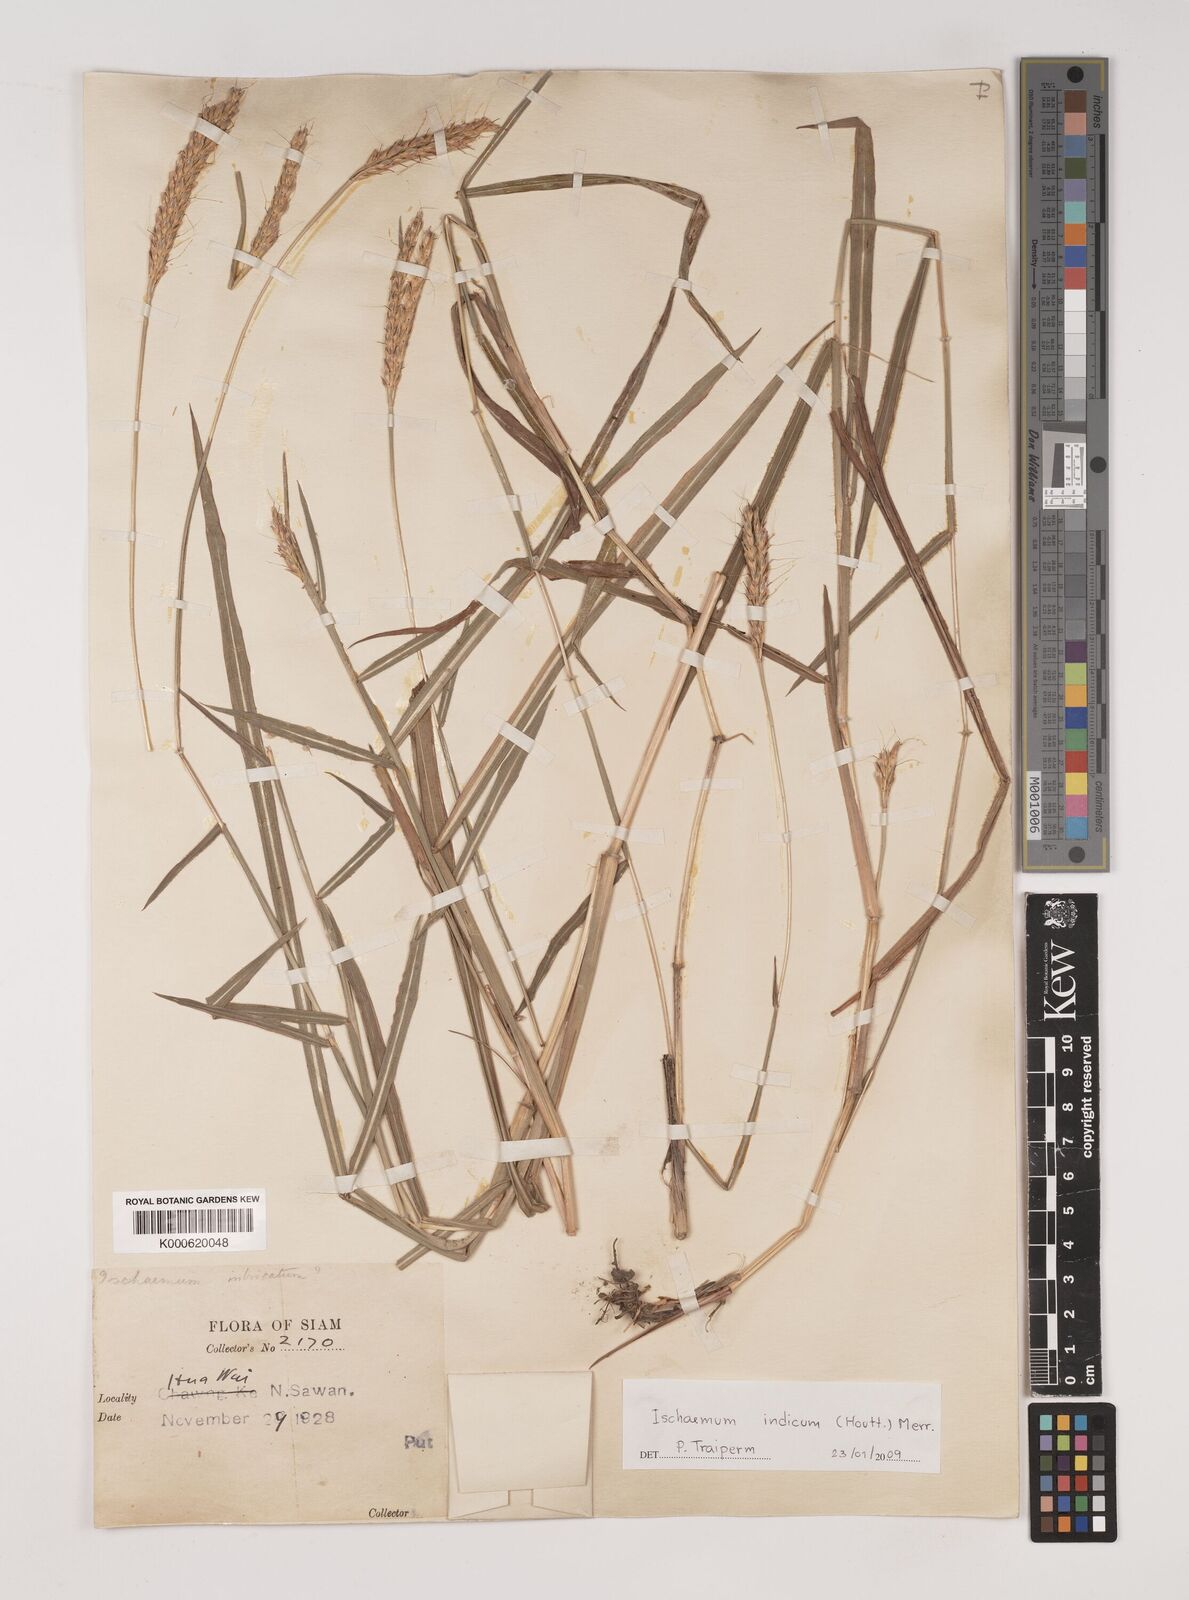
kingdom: Plantae
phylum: Tracheophyta
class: Liliopsida
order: Poales
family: Poaceae
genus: Polytrias
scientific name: Polytrias indica
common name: Indian murainagrass
